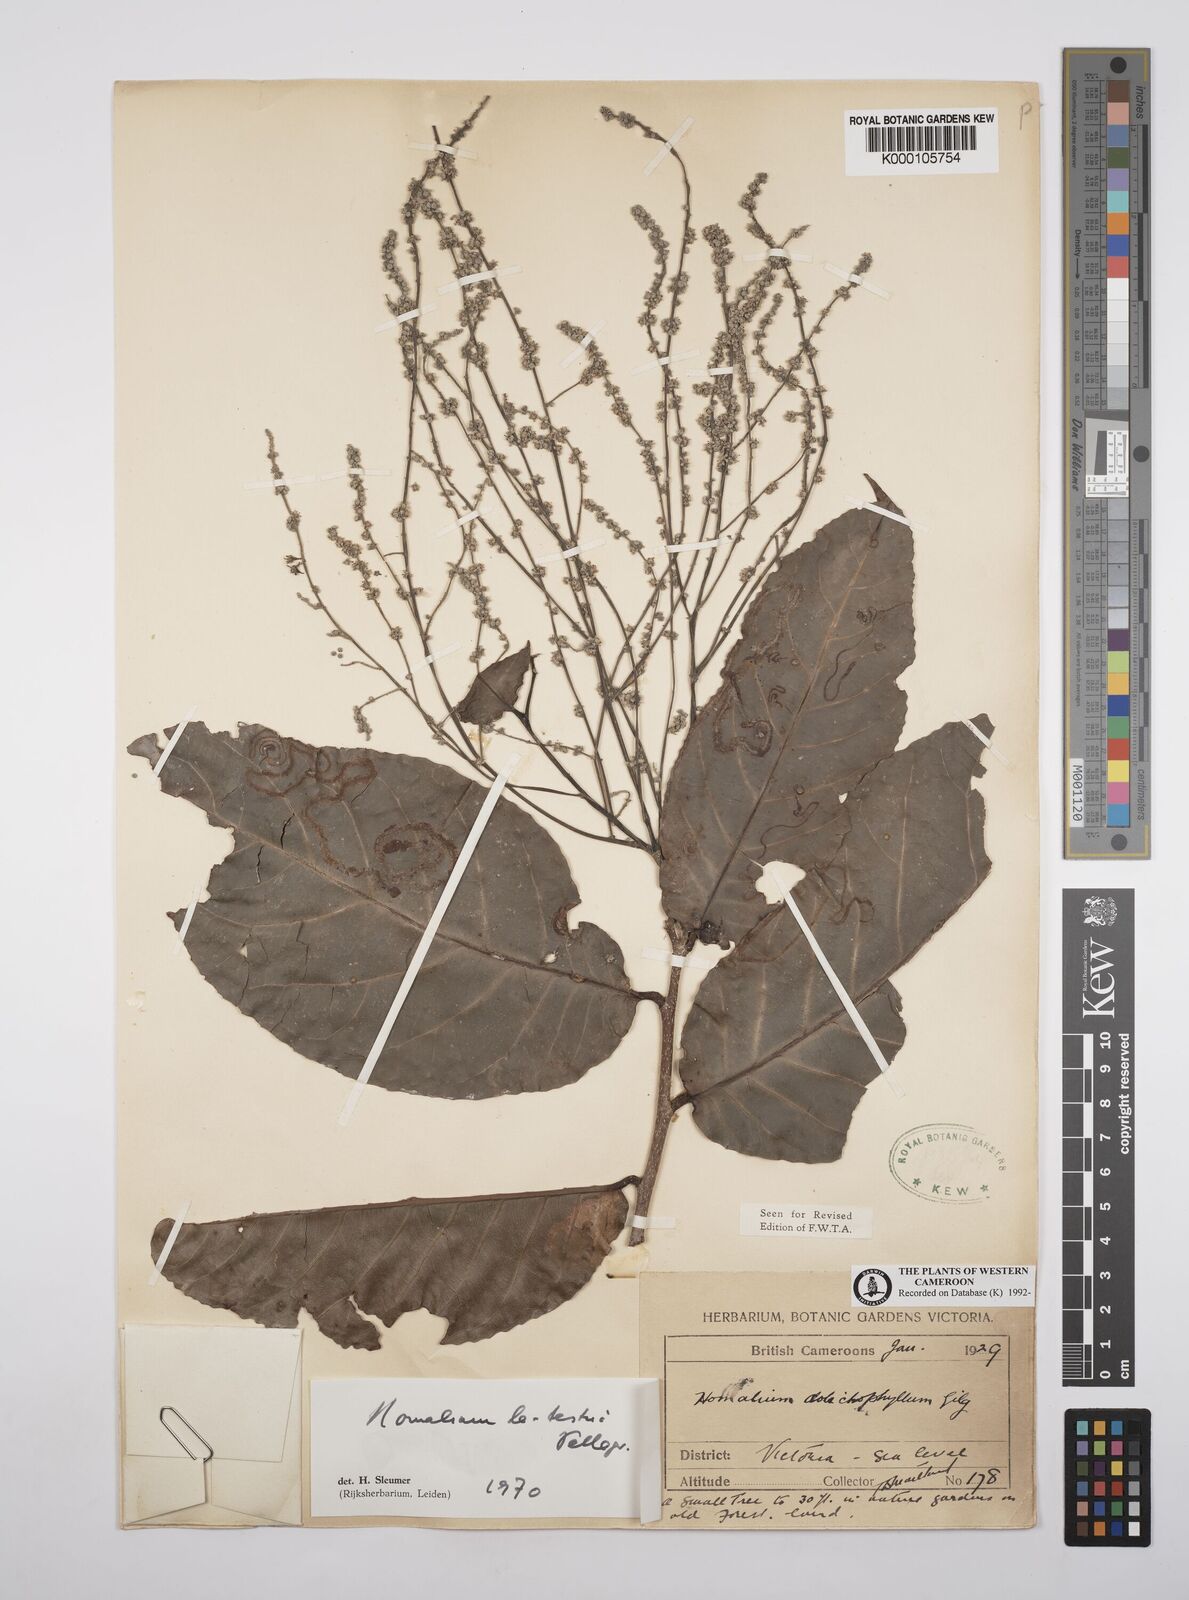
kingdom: Plantae
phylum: Tracheophyta
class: Magnoliopsida
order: Malpighiales
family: Salicaceae
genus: Homalium
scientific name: Homalium letestui
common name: African homalium
